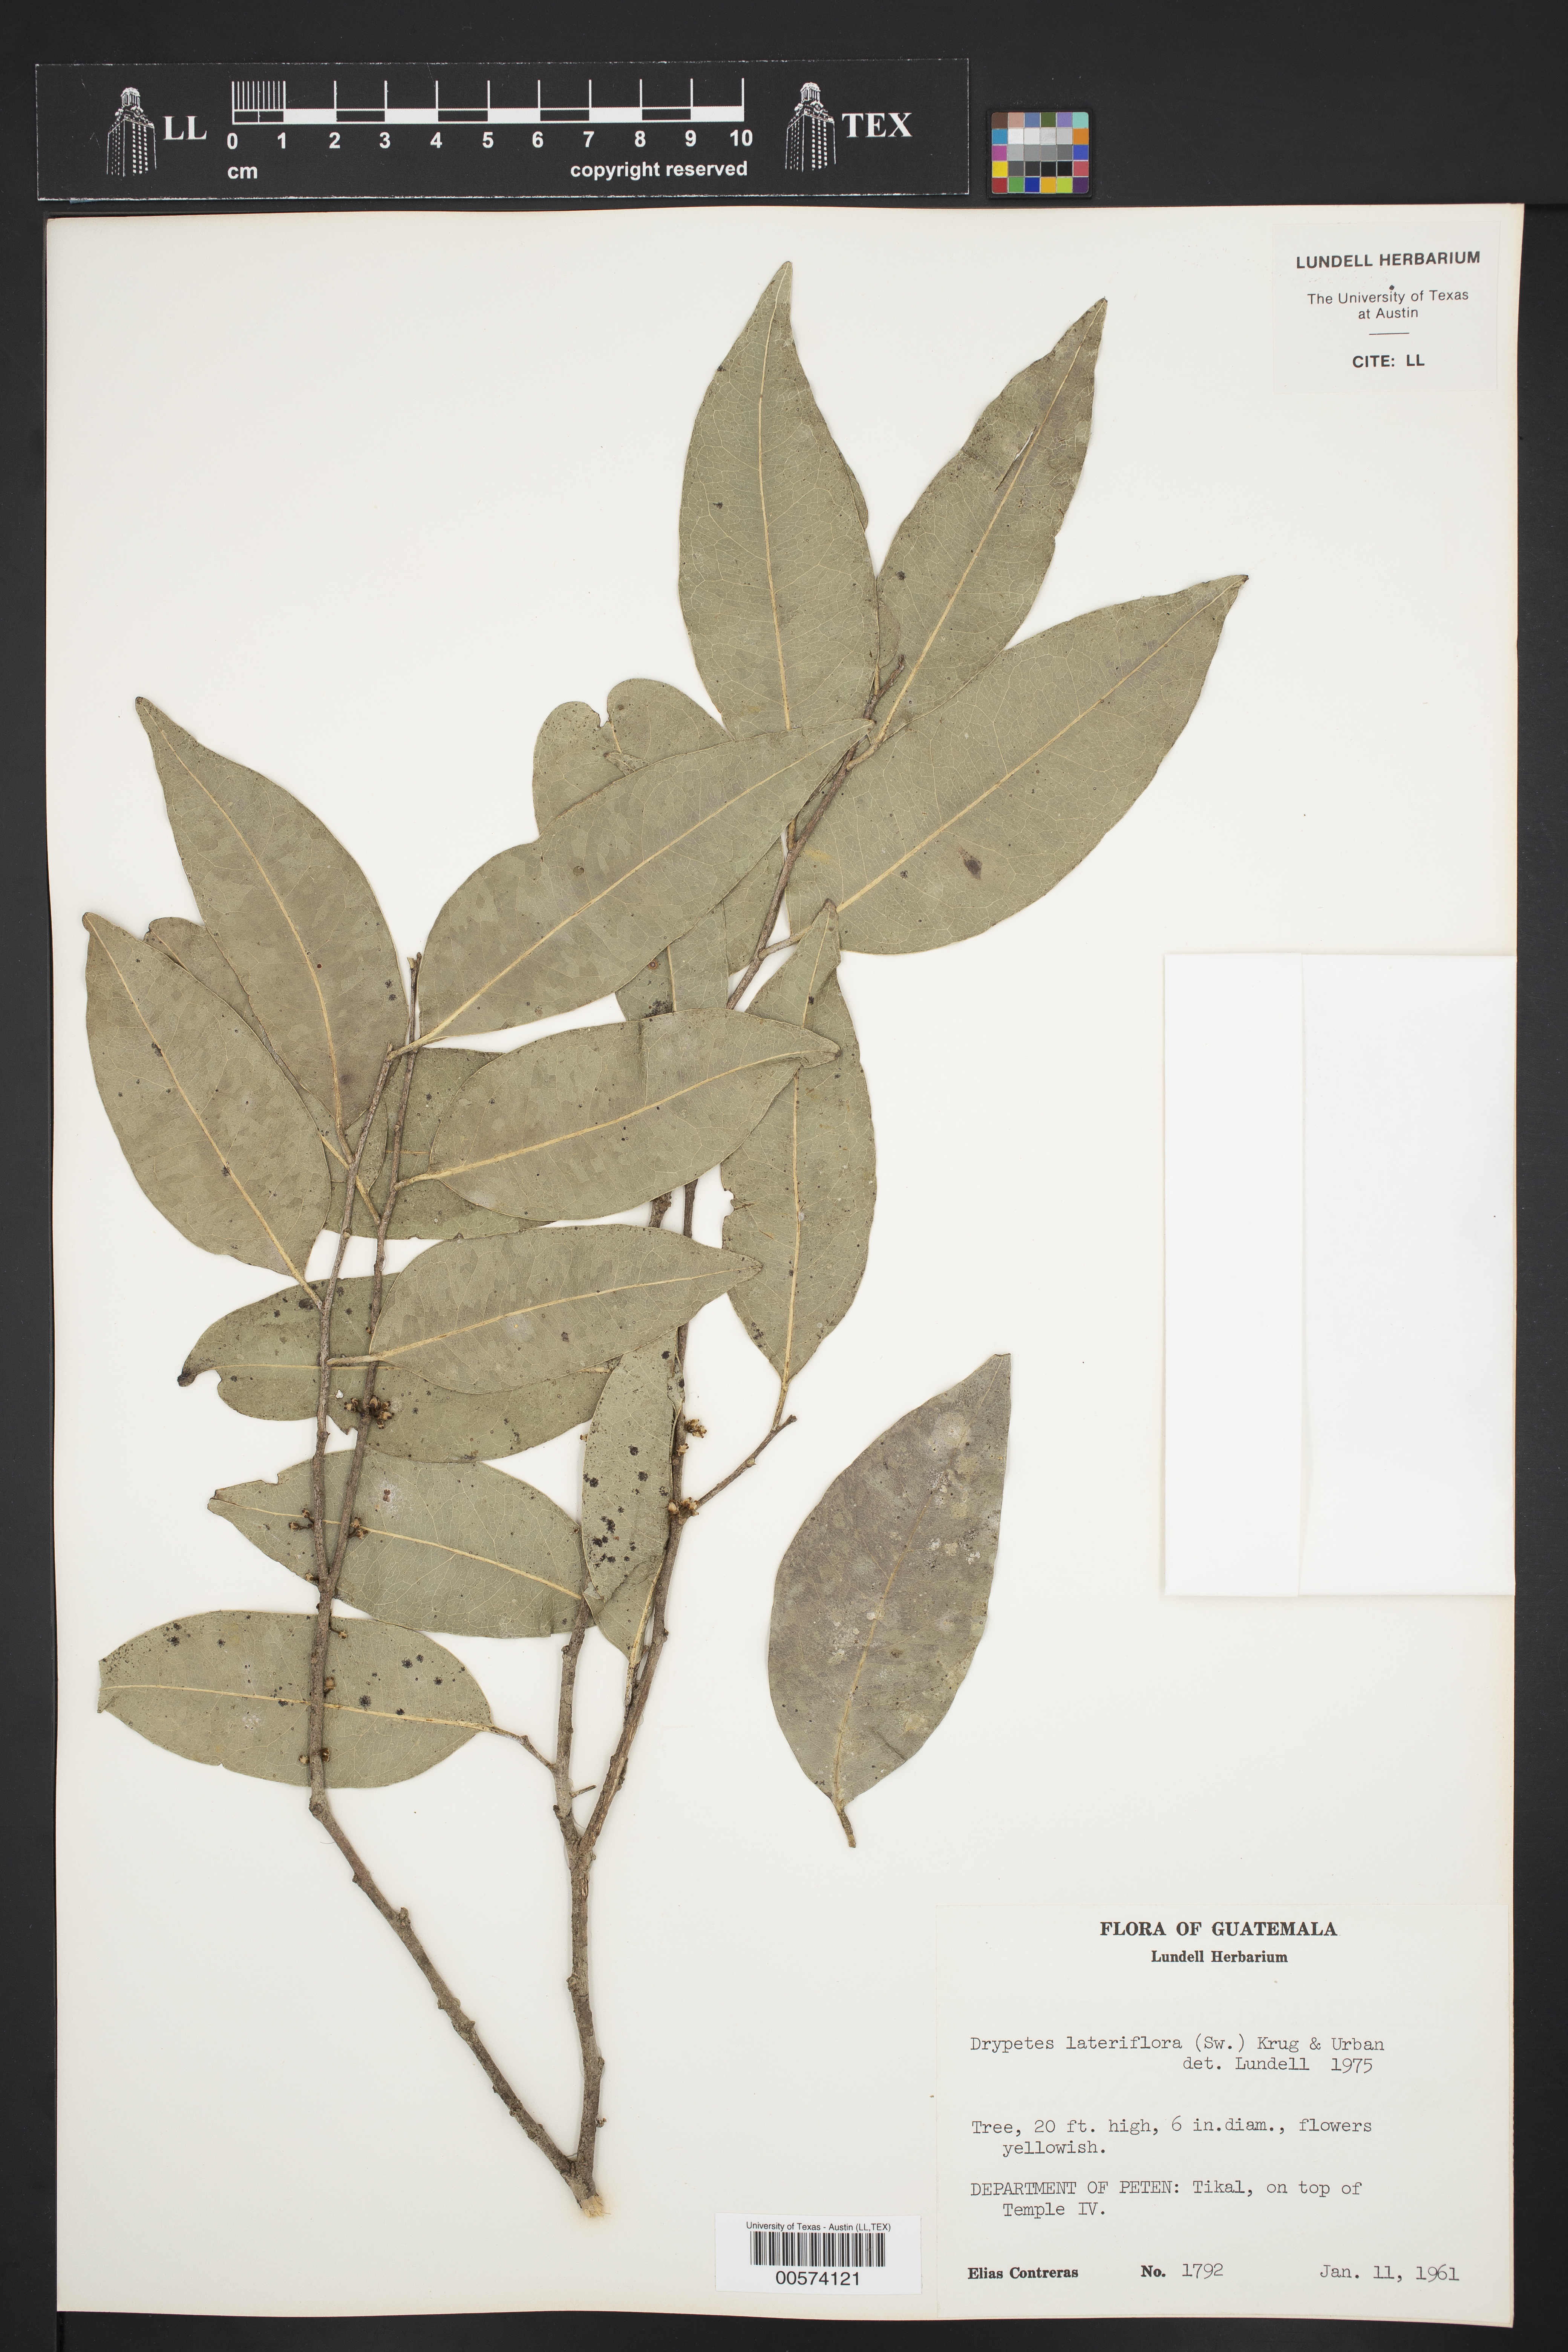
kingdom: Plantae
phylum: Tracheophyta
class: Magnoliopsida
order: Malpighiales
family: Putranjivaceae
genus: Drypetes
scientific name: Drypetes lateriflora
